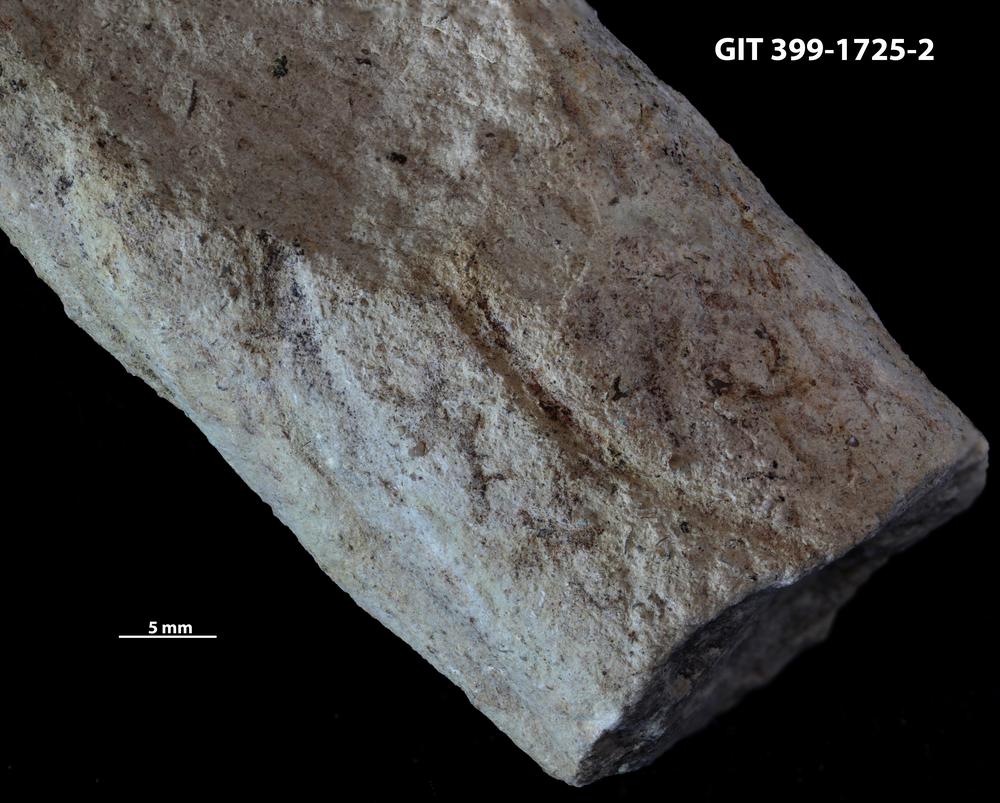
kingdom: Animalia
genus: Palaeophycus
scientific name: Palaeophycus
